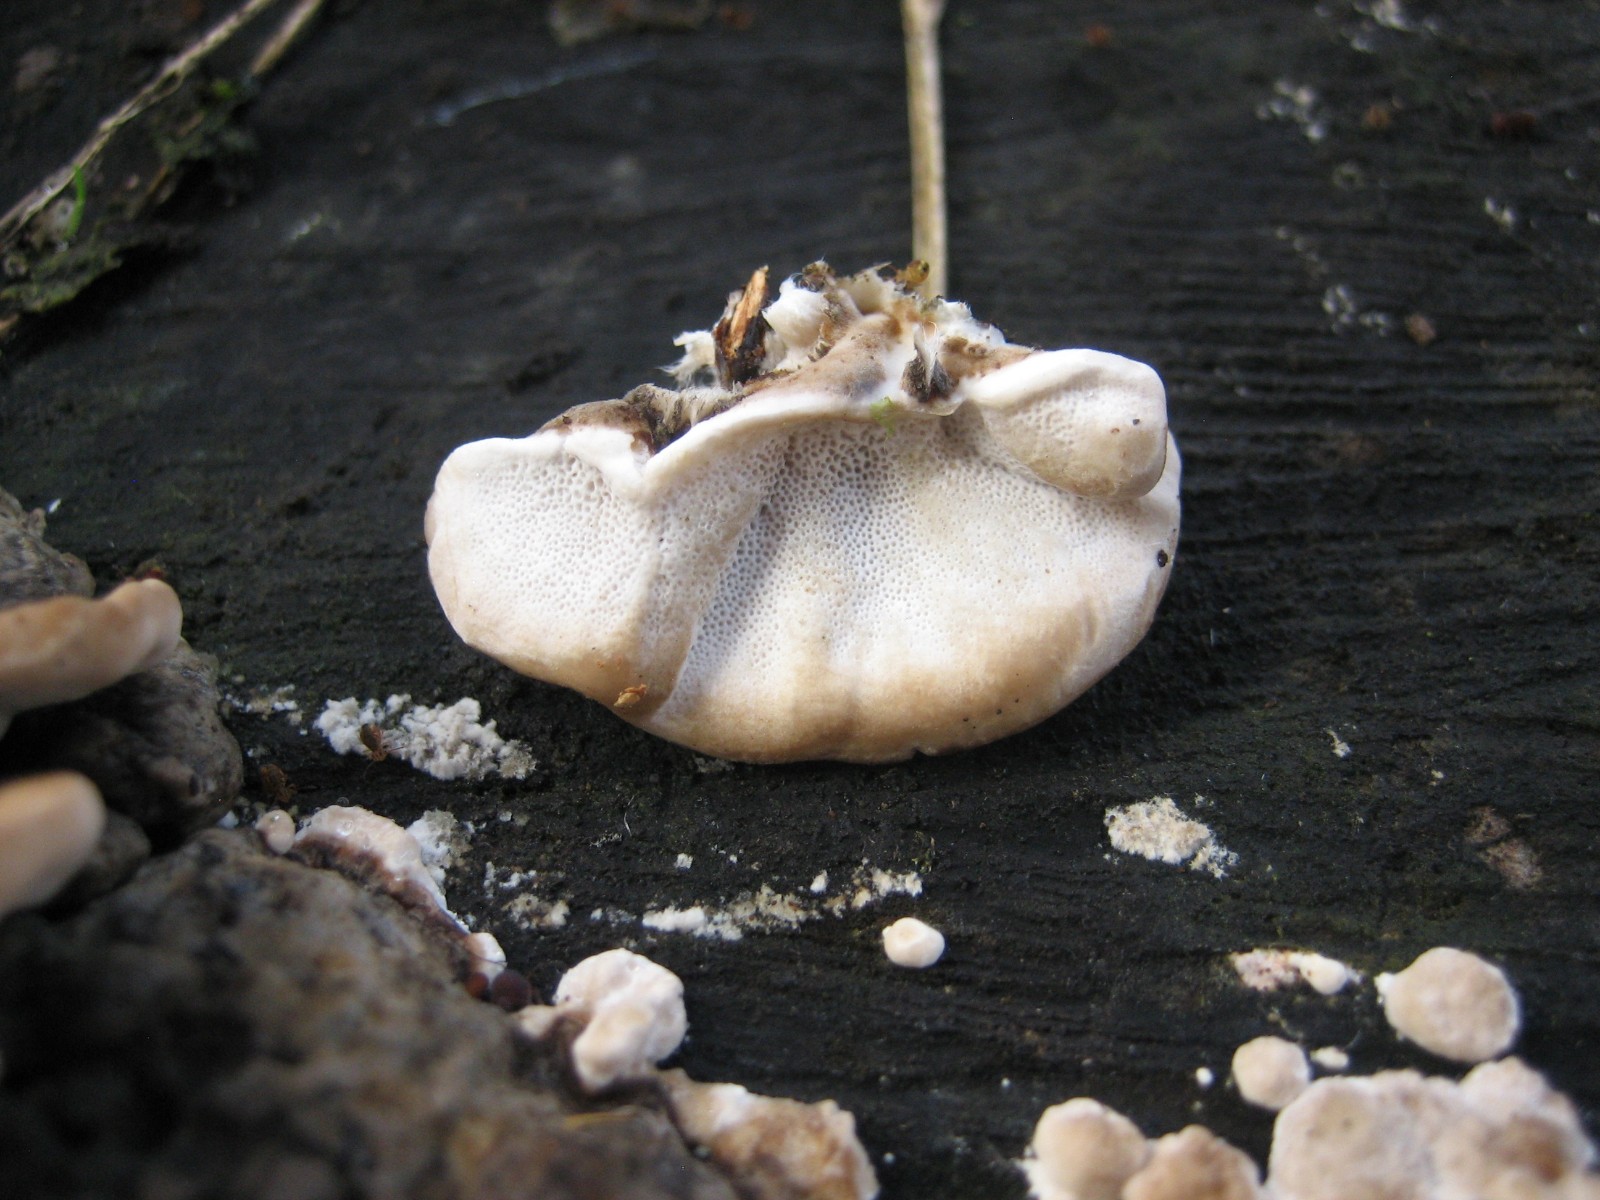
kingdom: Fungi
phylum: Basidiomycota
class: Agaricomycetes
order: Polyporales
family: Polyporaceae
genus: Trametes
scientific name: Trametes versicolor
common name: broget læderporesvamp
